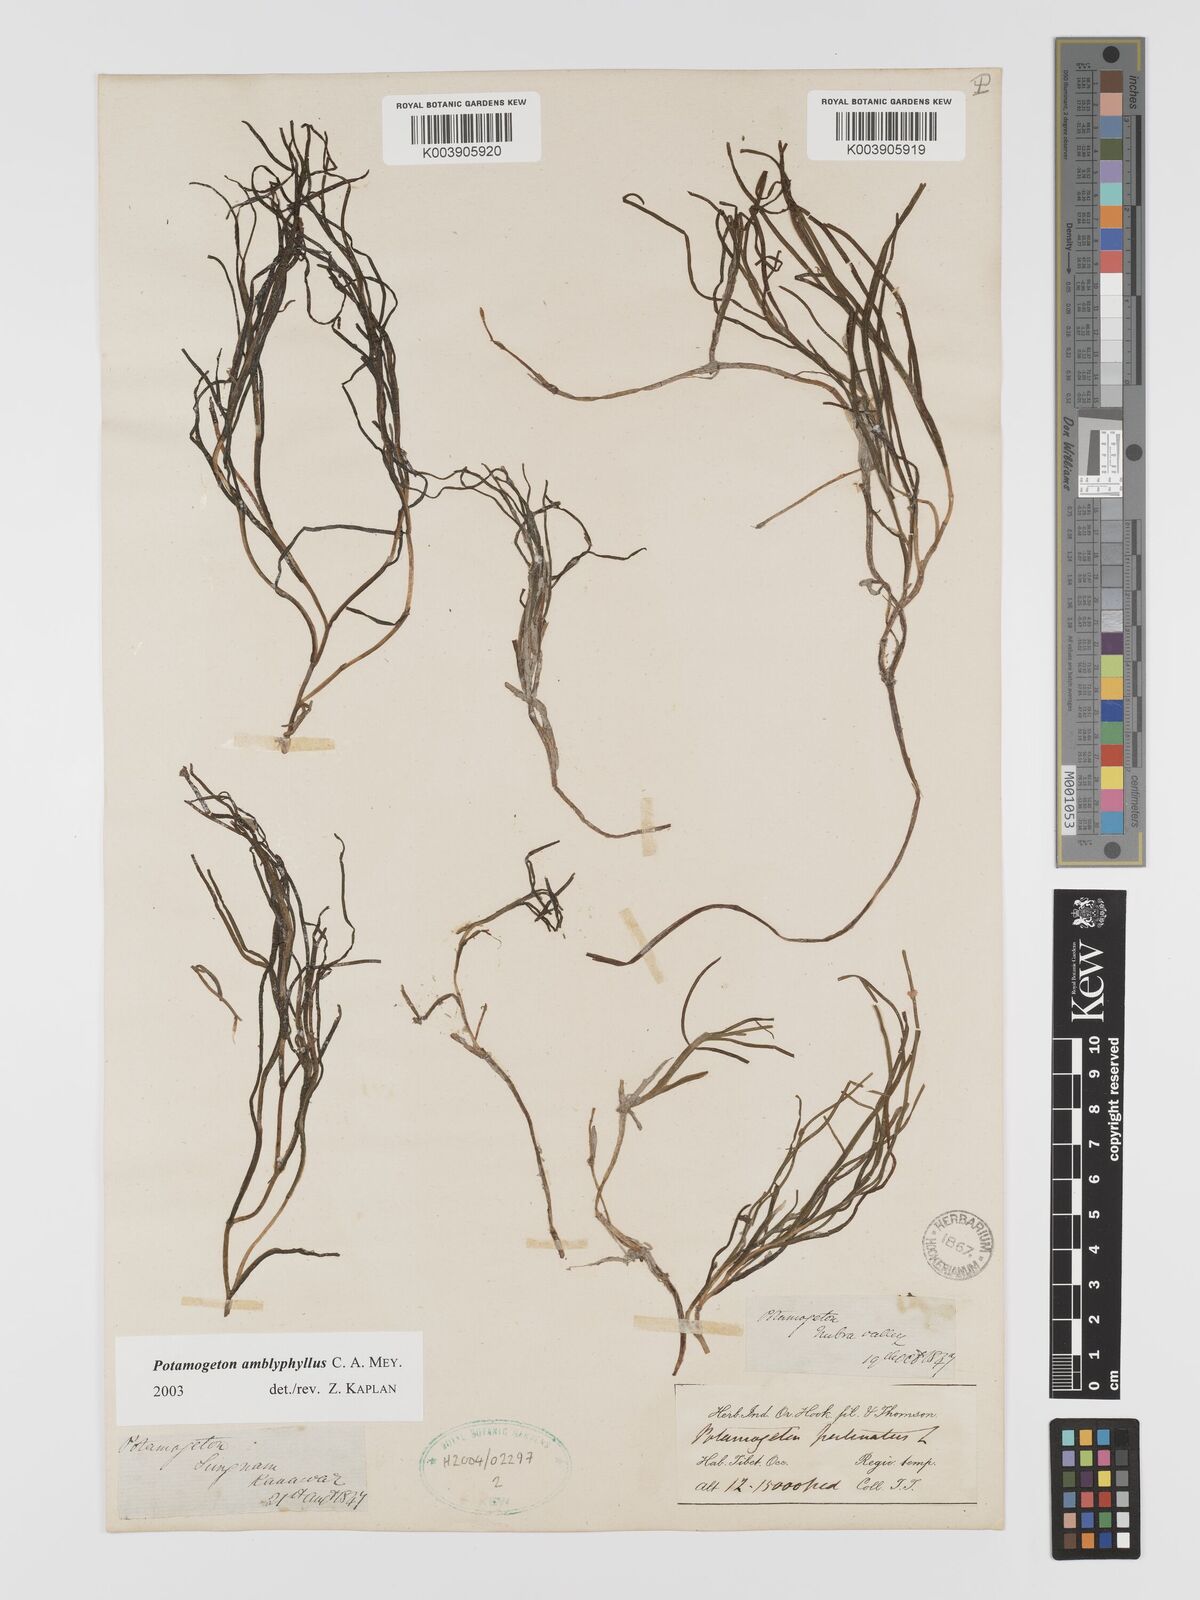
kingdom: Plantae
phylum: Tracheophyta
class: Liliopsida
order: Alismatales
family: Potamogetonaceae
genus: Stuckenia
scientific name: Stuckenia amblyophylla
